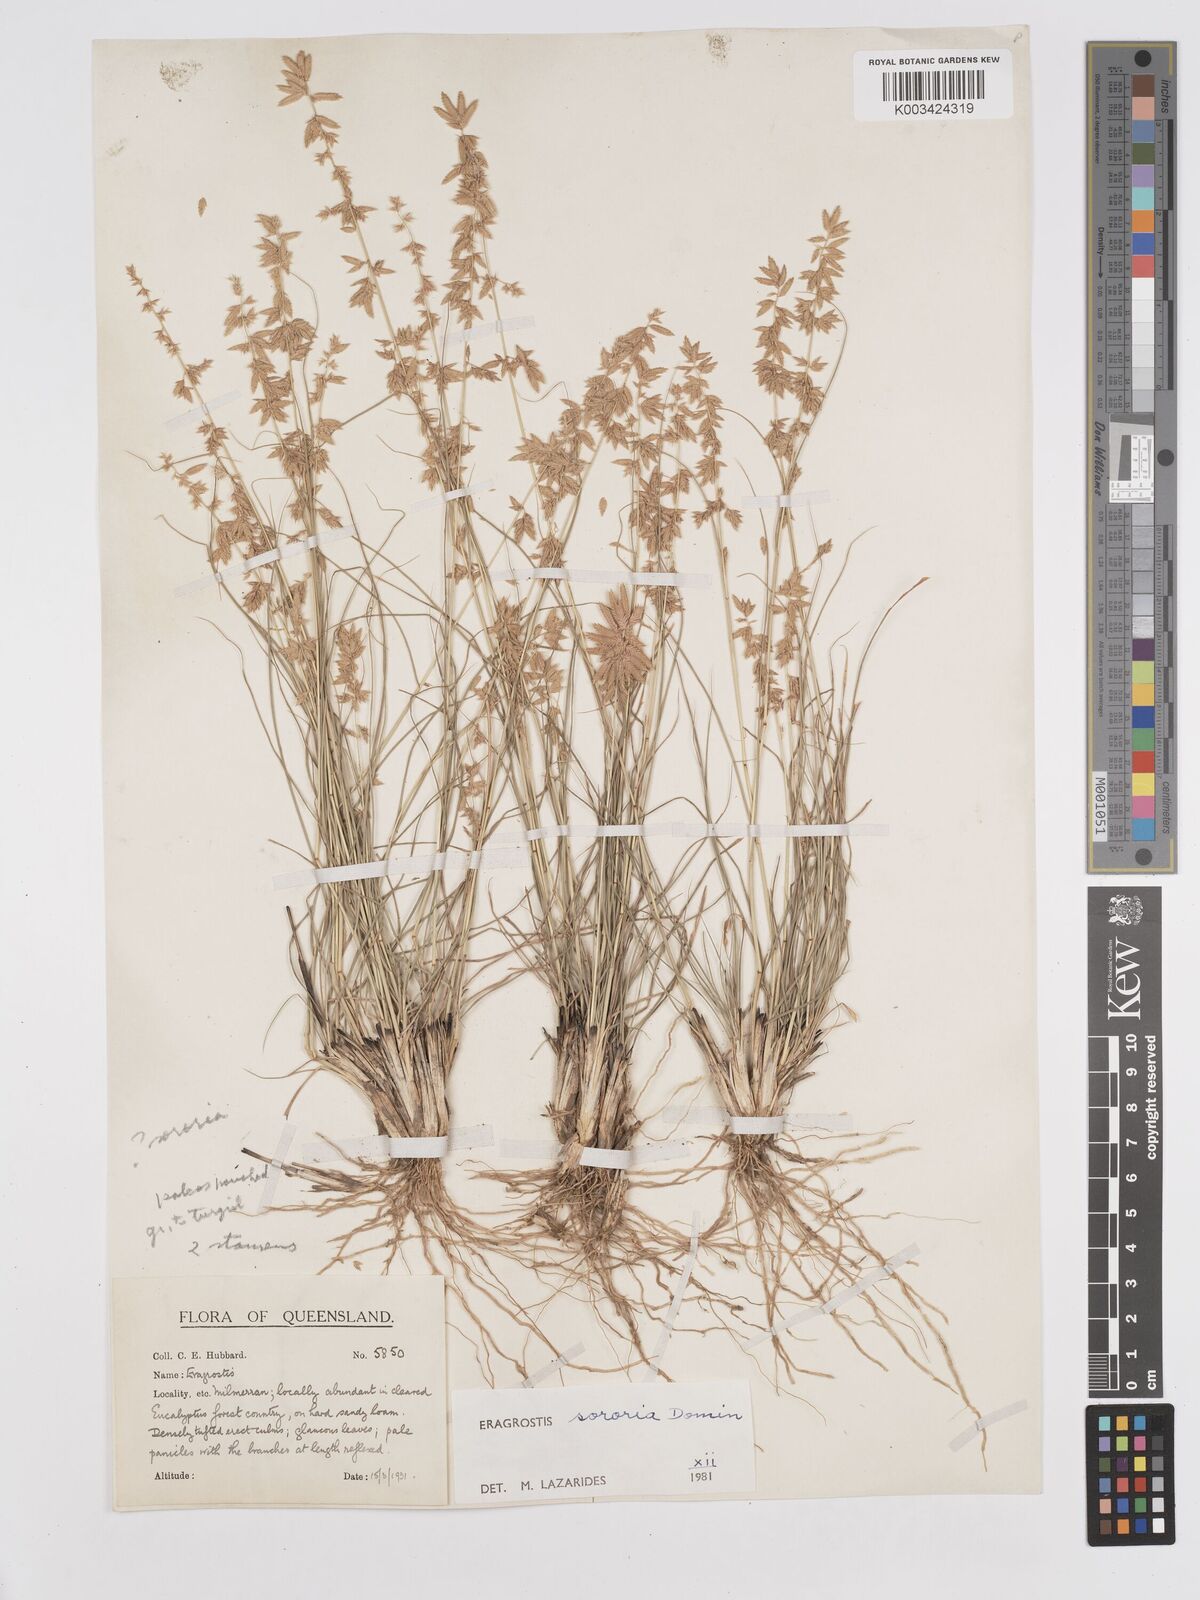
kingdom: Plantae
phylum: Tracheophyta
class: Liliopsida
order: Poales
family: Poaceae
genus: Eragrostis
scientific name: Eragrostis sororia
